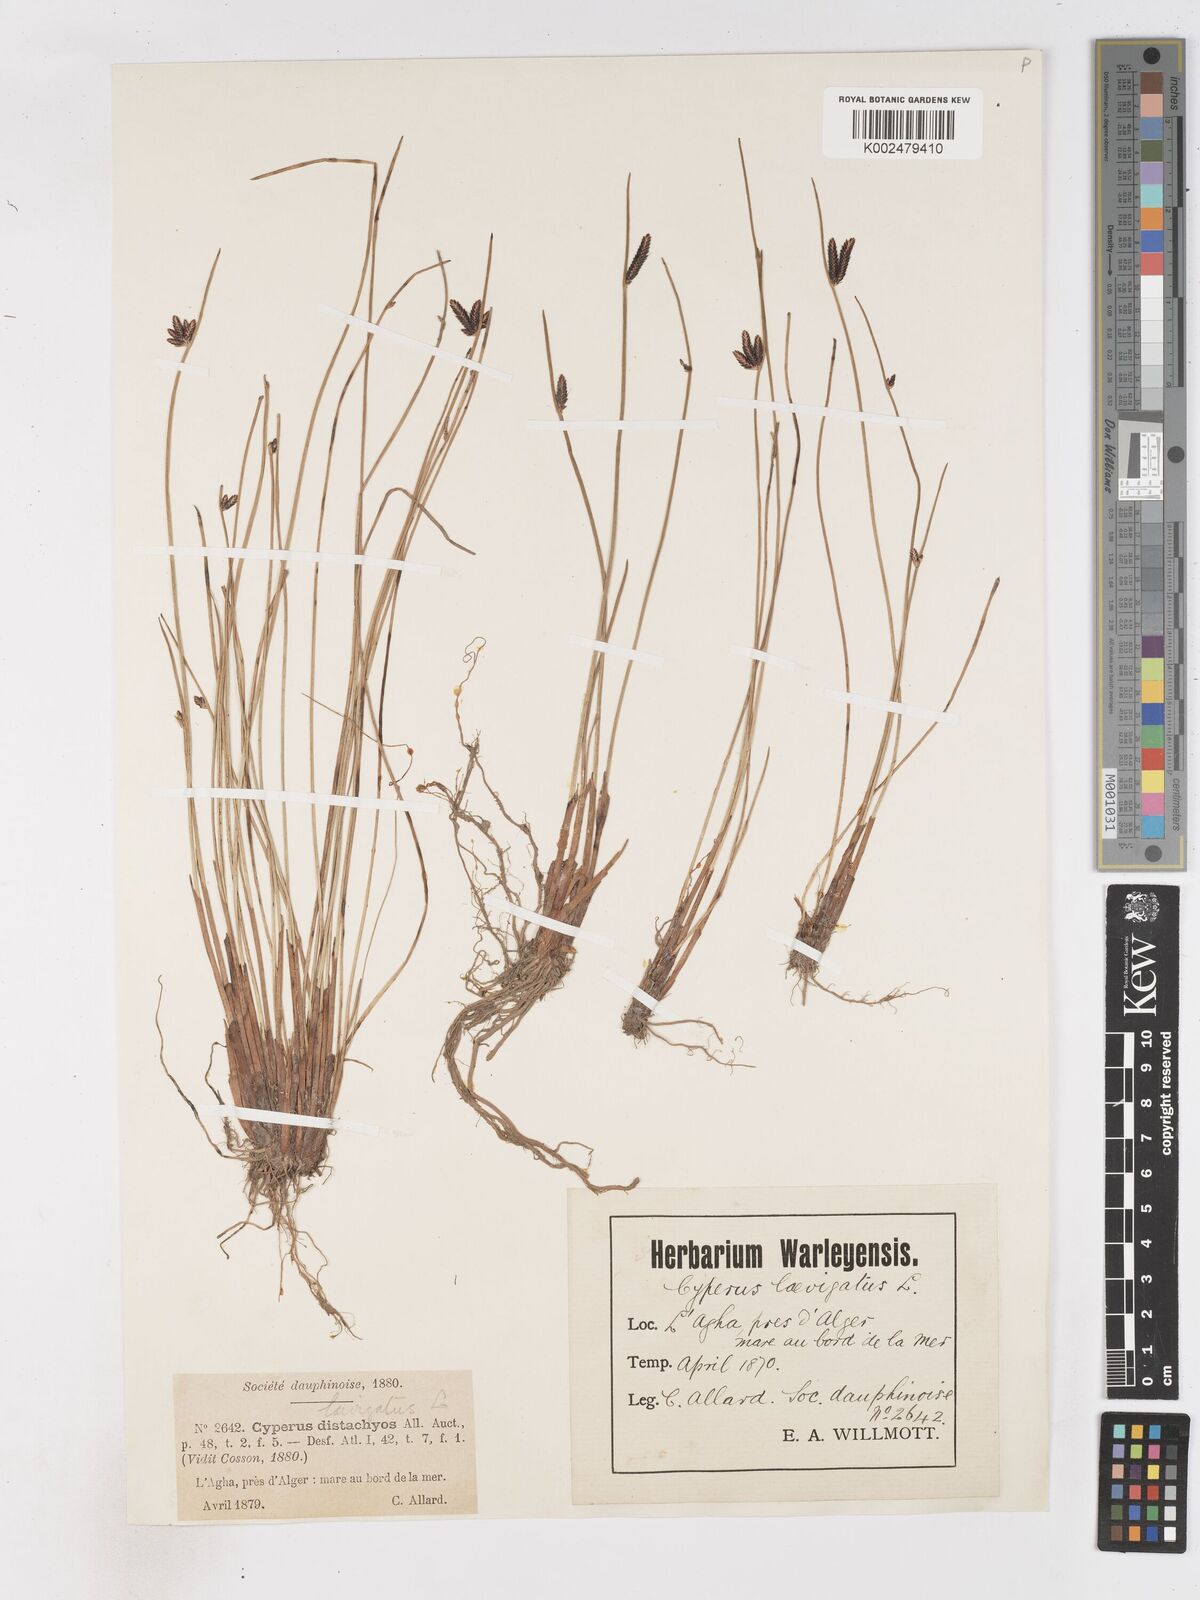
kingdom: Plantae
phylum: Tracheophyta
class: Liliopsida
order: Poales
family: Cyperaceae
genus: Cyperus
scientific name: Cyperus laevigatus
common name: Smooth flat sedge
